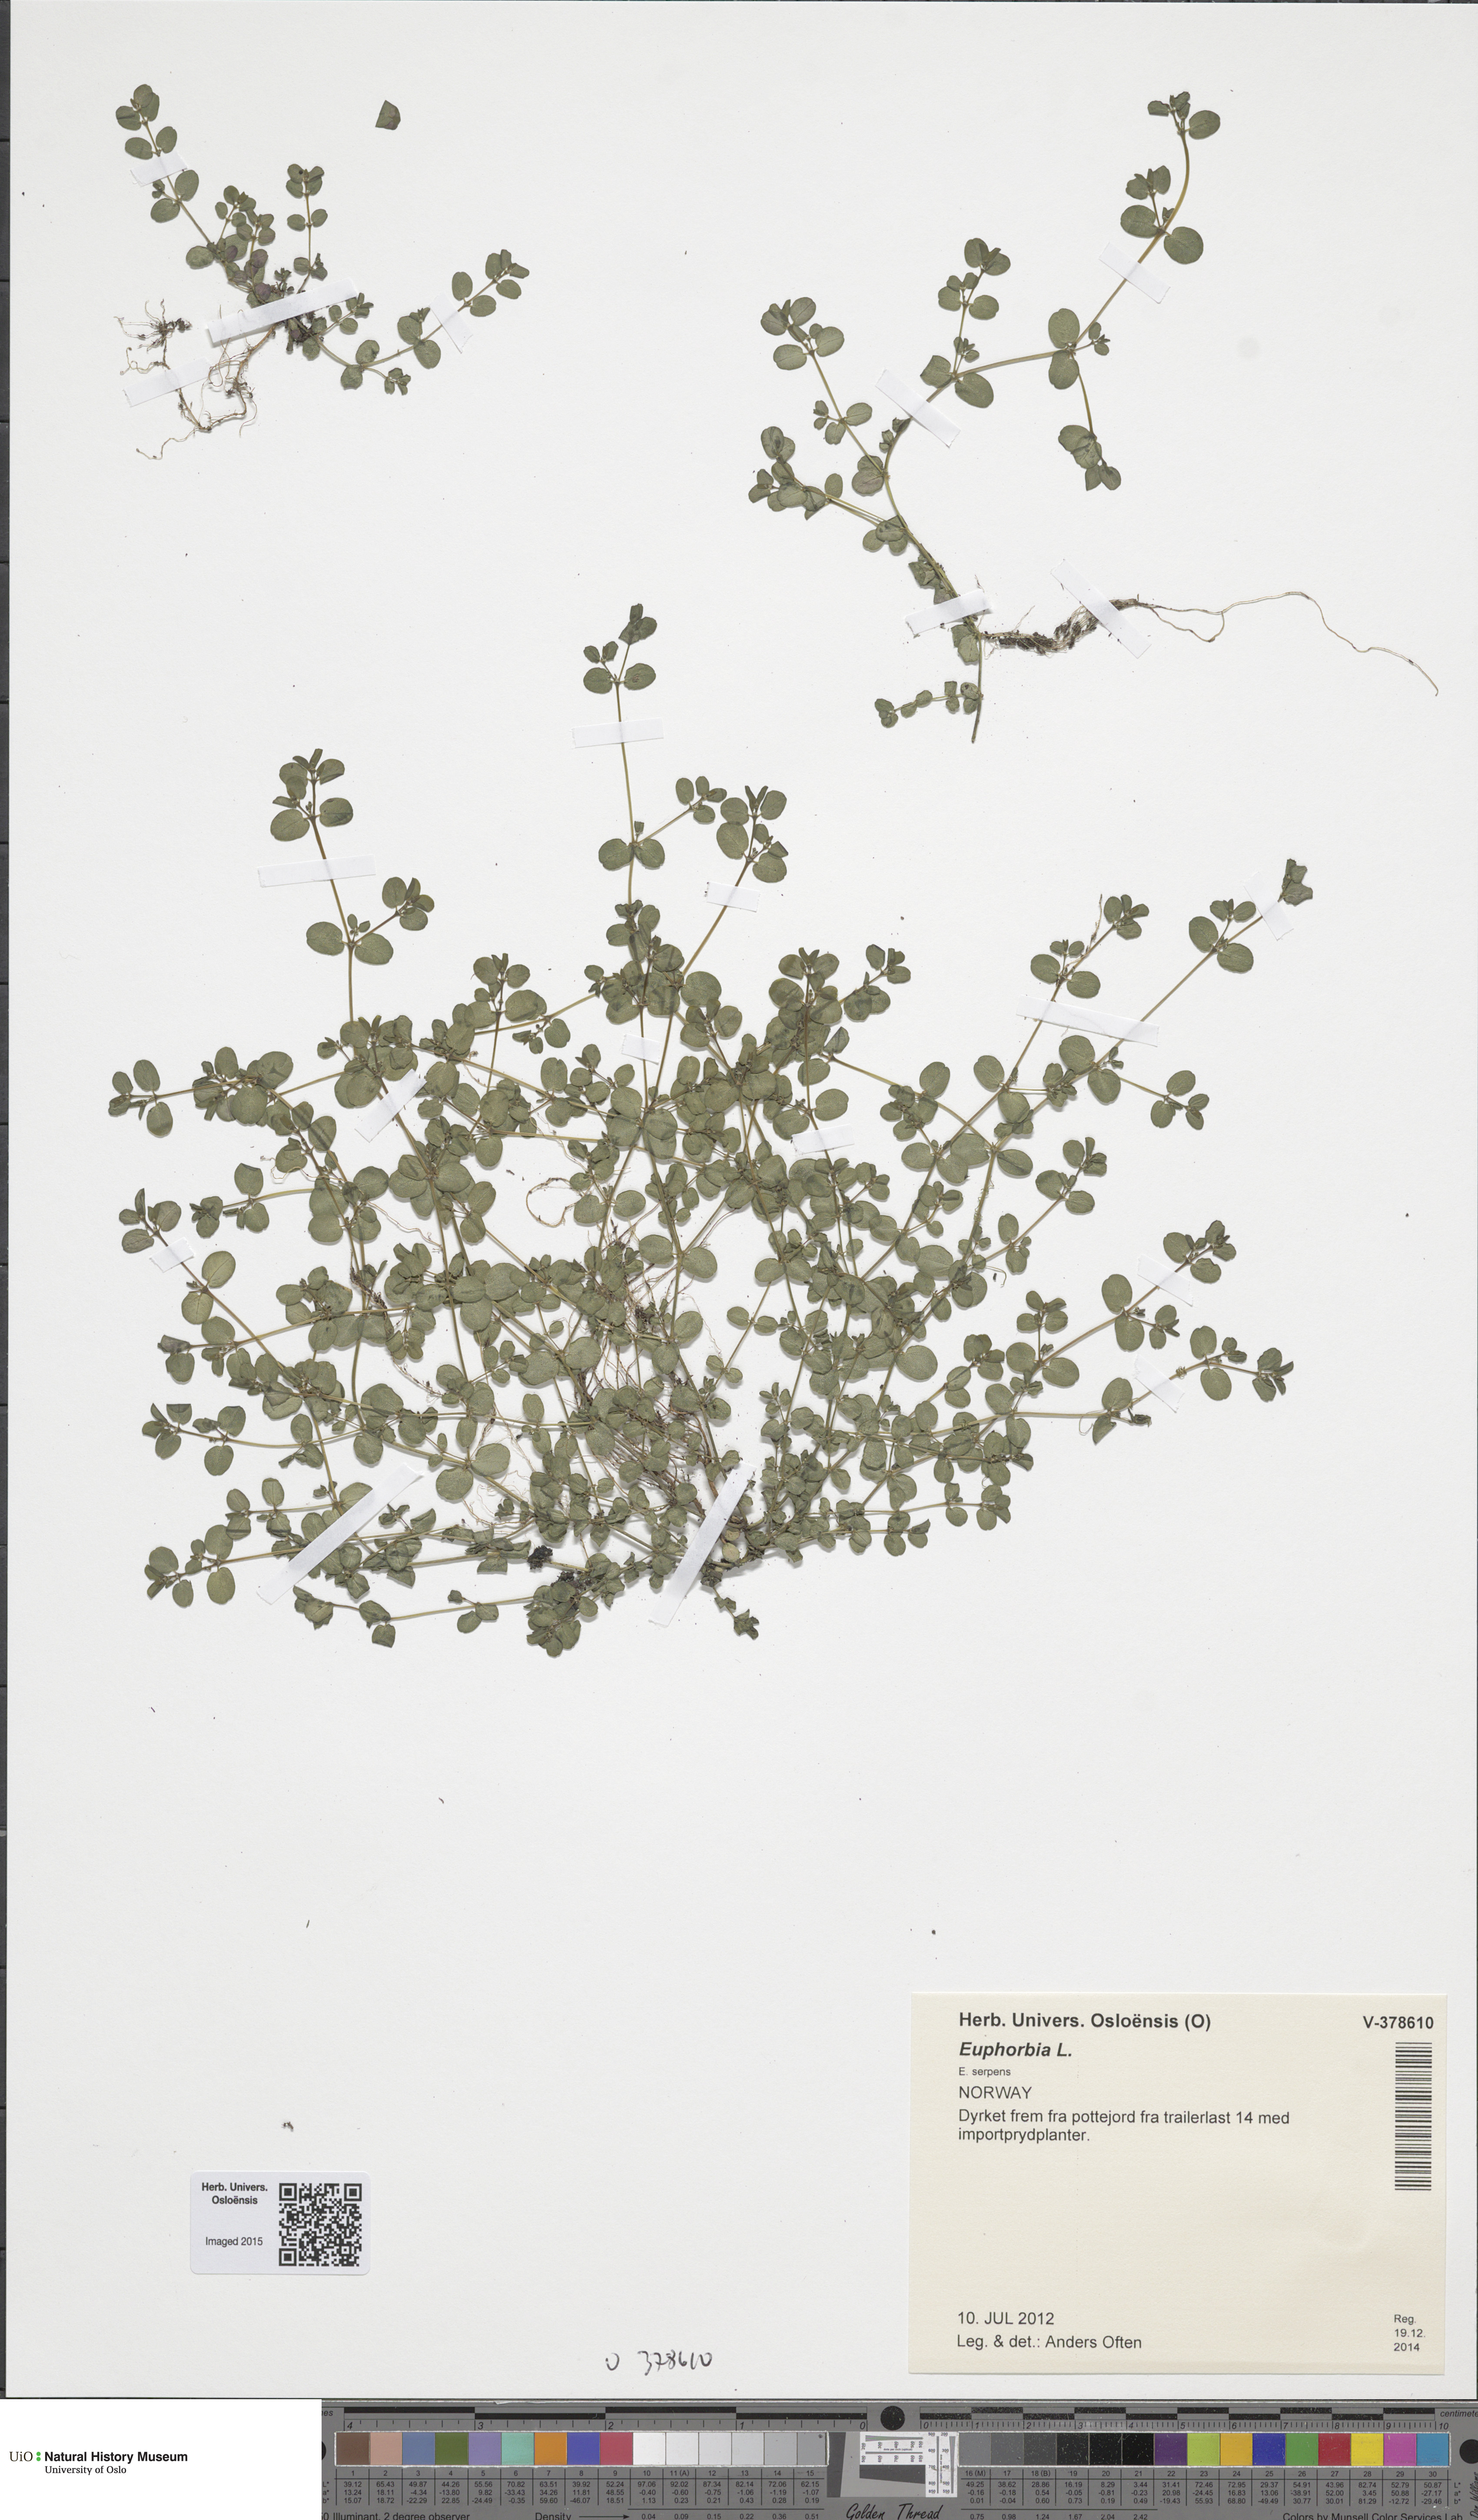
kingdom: Plantae
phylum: Tracheophyta
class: Magnoliopsida
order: Malpighiales
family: Euphorbiaceae
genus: Euphorbia
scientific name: Euphorbia
